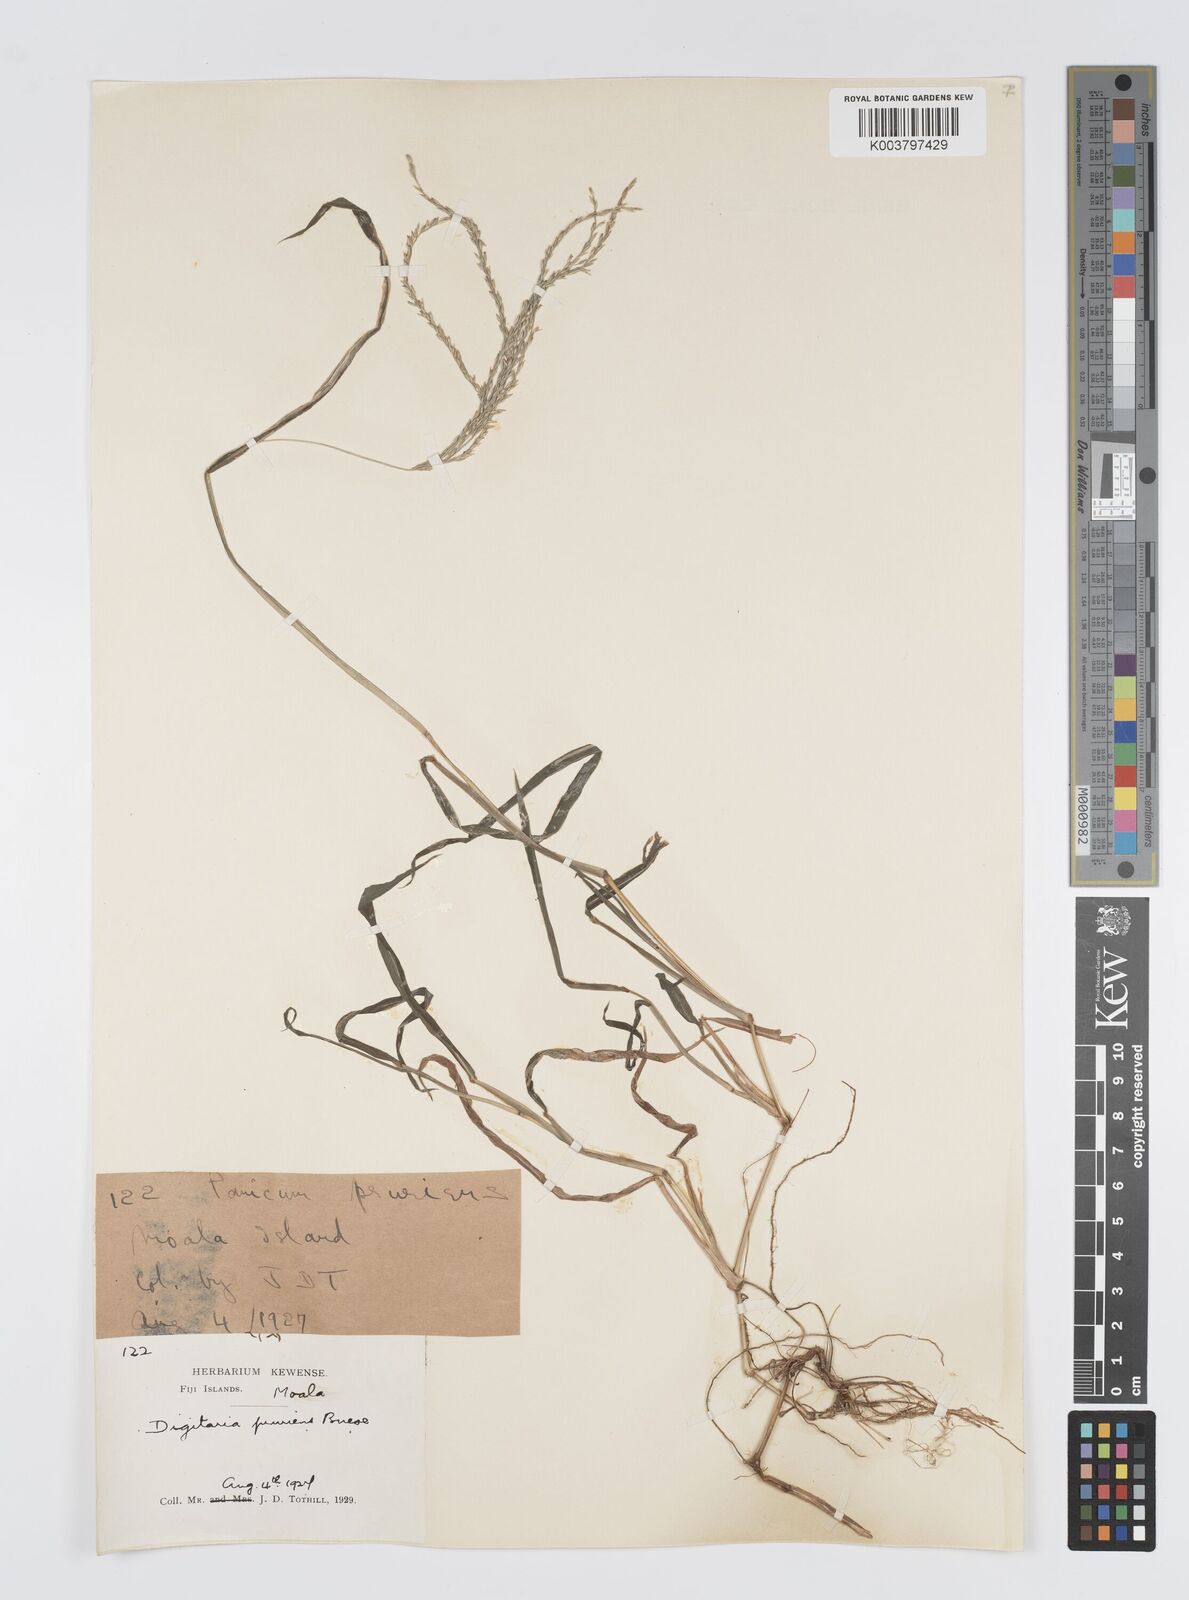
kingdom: Plantae
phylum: Tracheophyta
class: Liliopsida
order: Poales
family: Poaceae
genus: Digitaria
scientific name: Digitaria setigera
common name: East indian crabgrass
